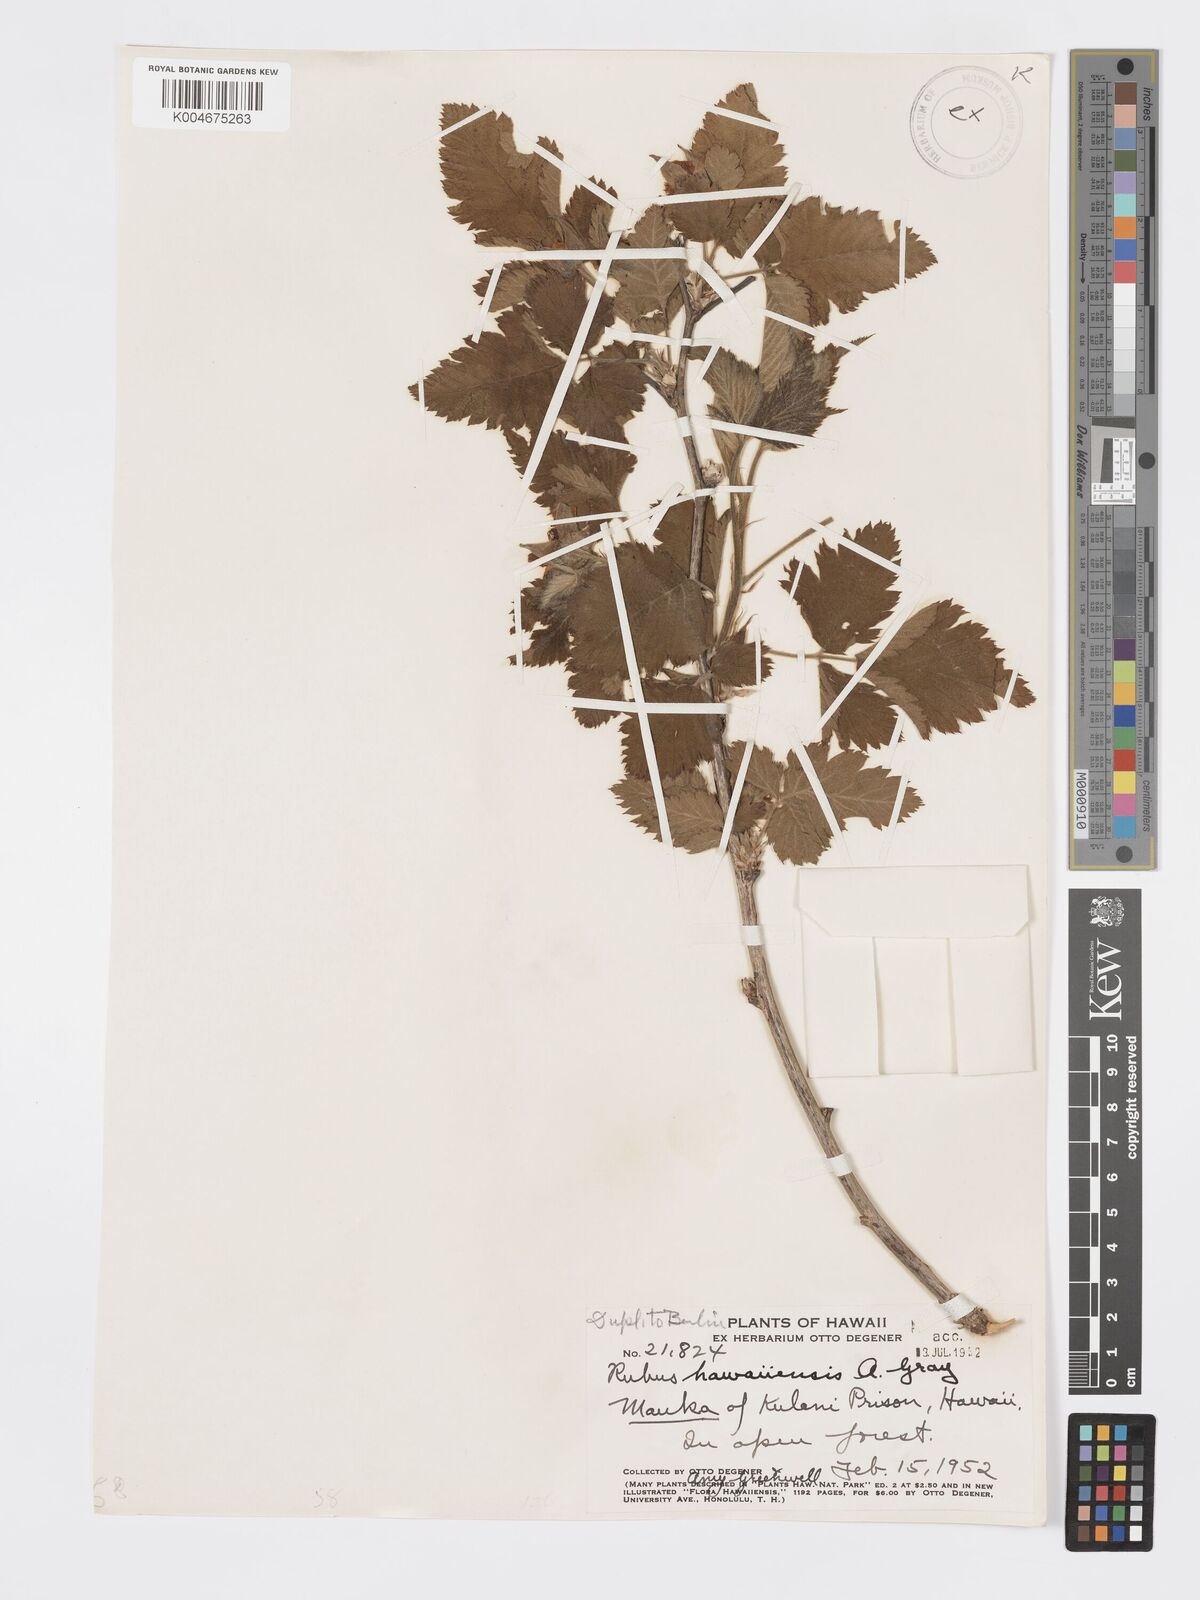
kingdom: Plantae
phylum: Tracheophyta
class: Magnoliopsida
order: Rosales
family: Rosaceae
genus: Rubus
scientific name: Rubus hawaiensis
